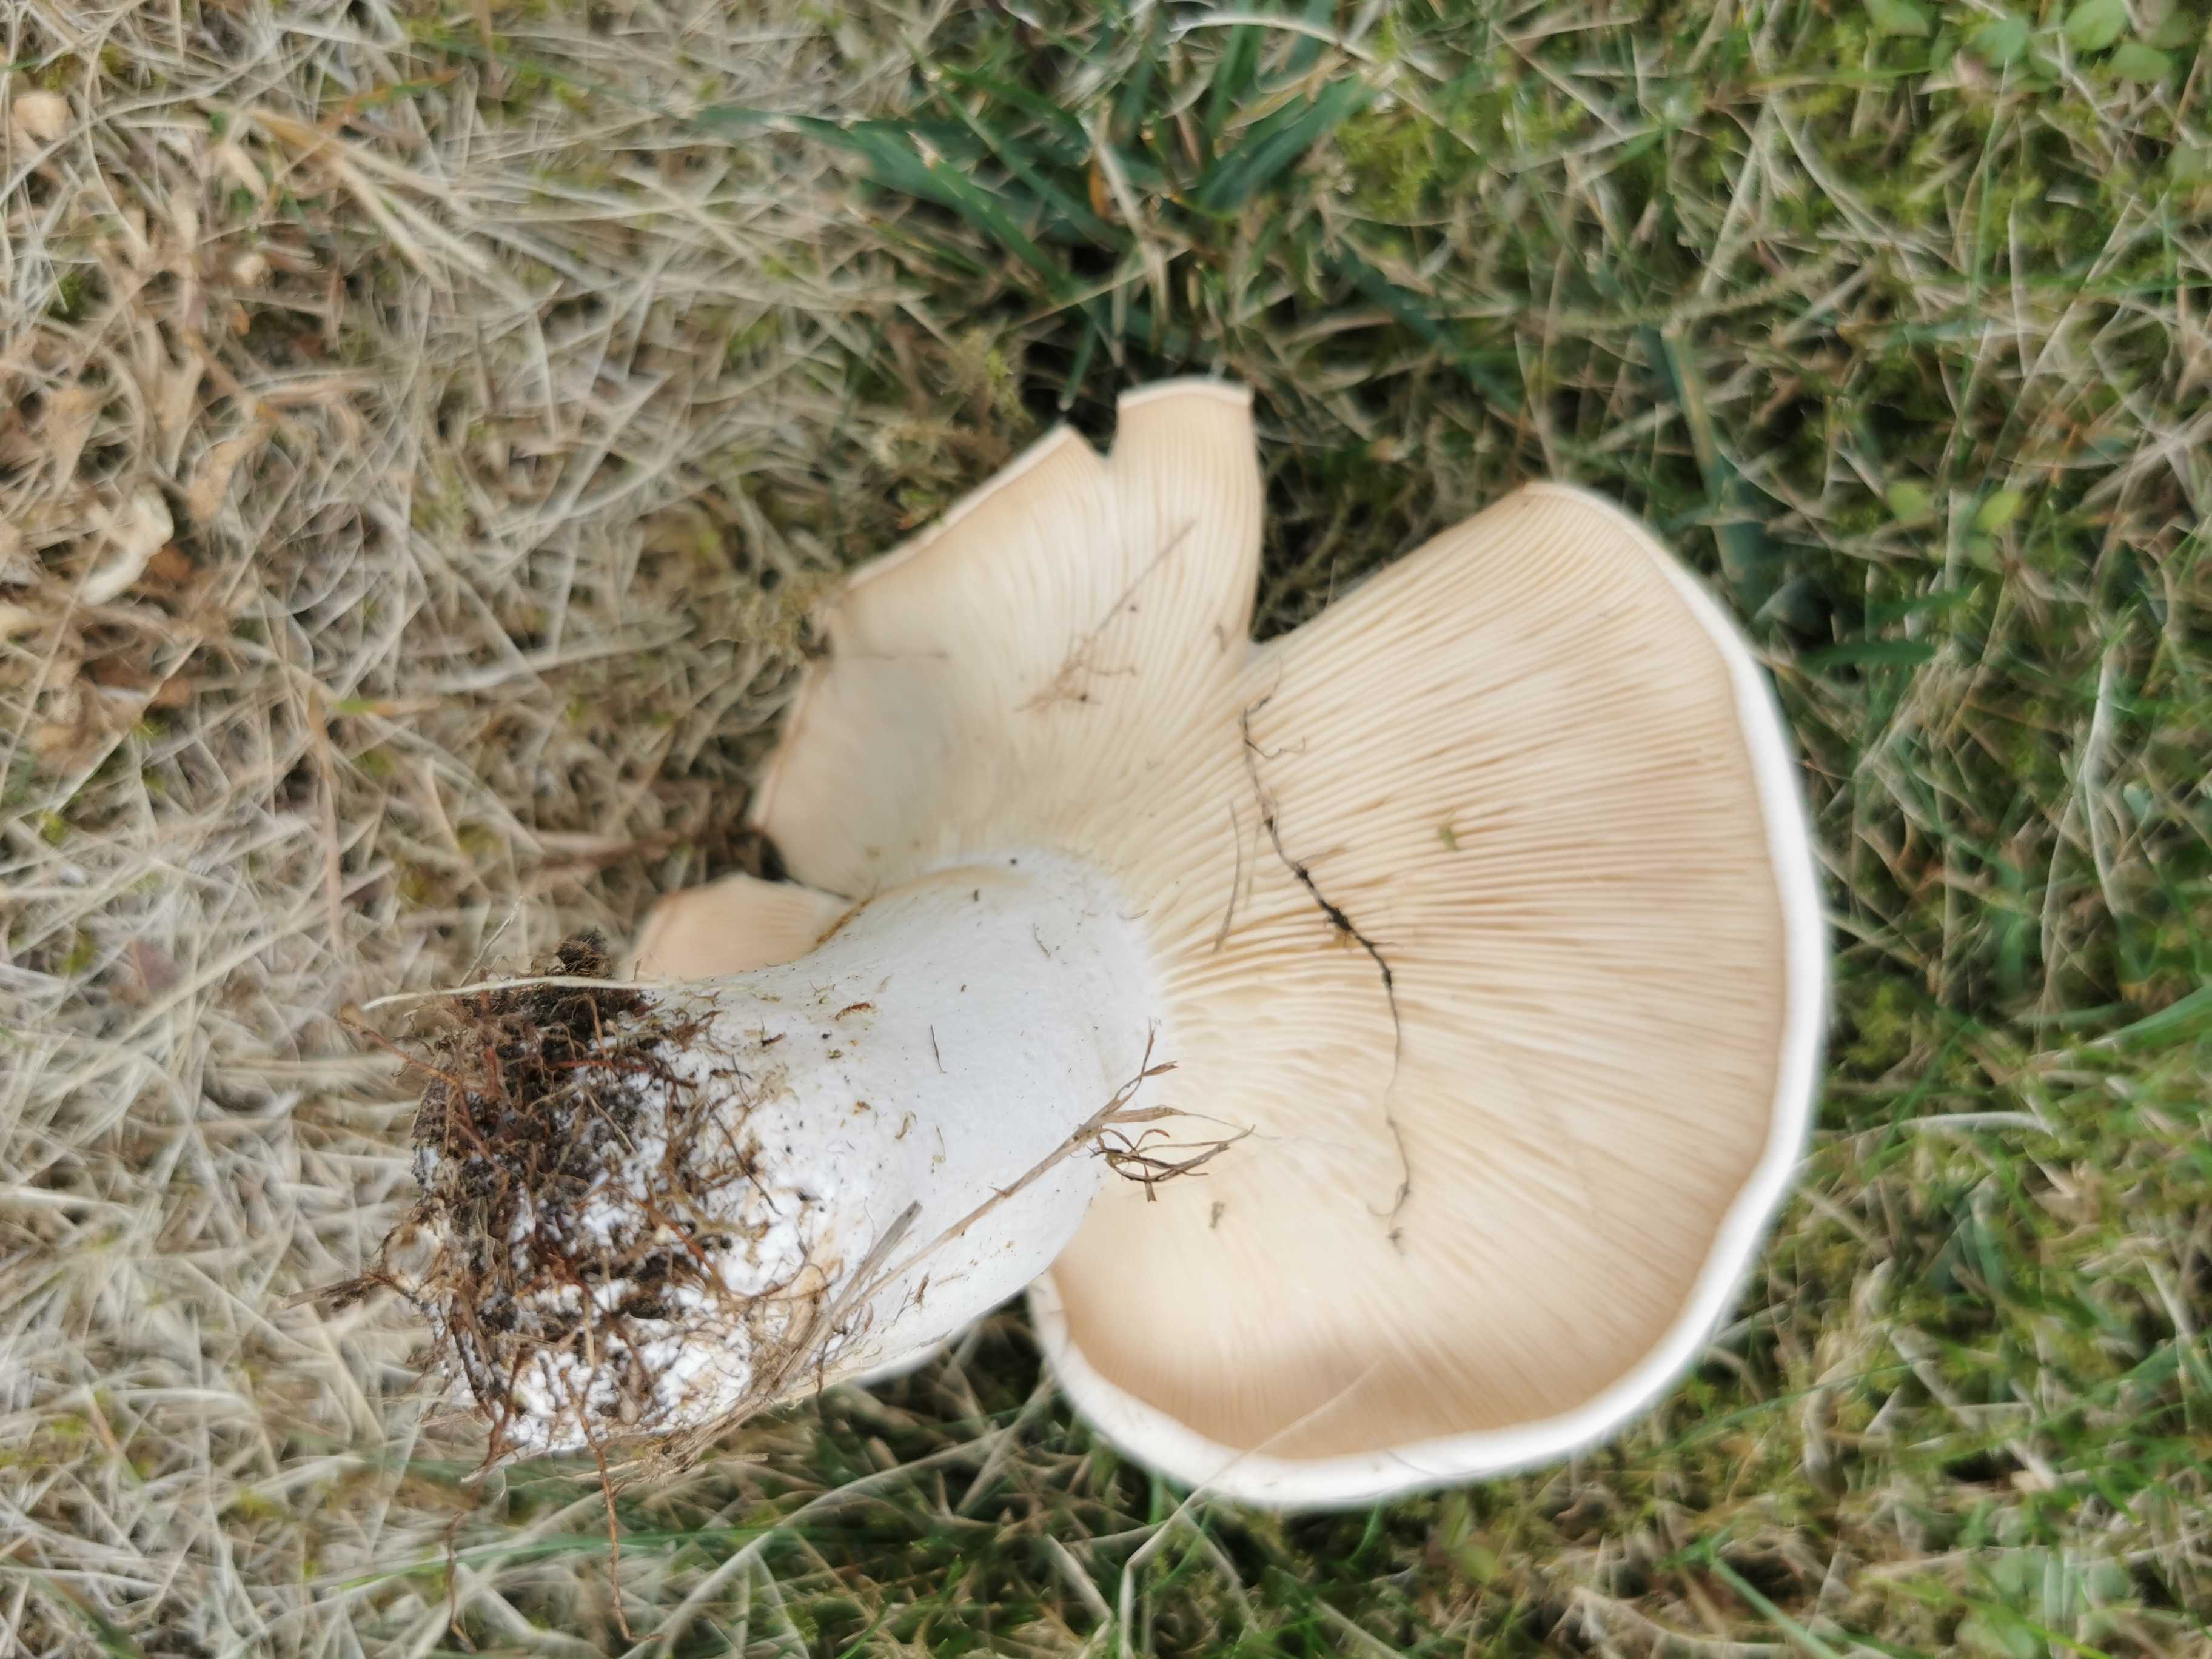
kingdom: Fungi
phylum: Basidiomycota
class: Agaricomycetes
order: Agaricales
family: Tricholomataceae
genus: Aspropaxillus
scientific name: Aspropaxillus giganteus
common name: kæmpe-tragtridderhat
